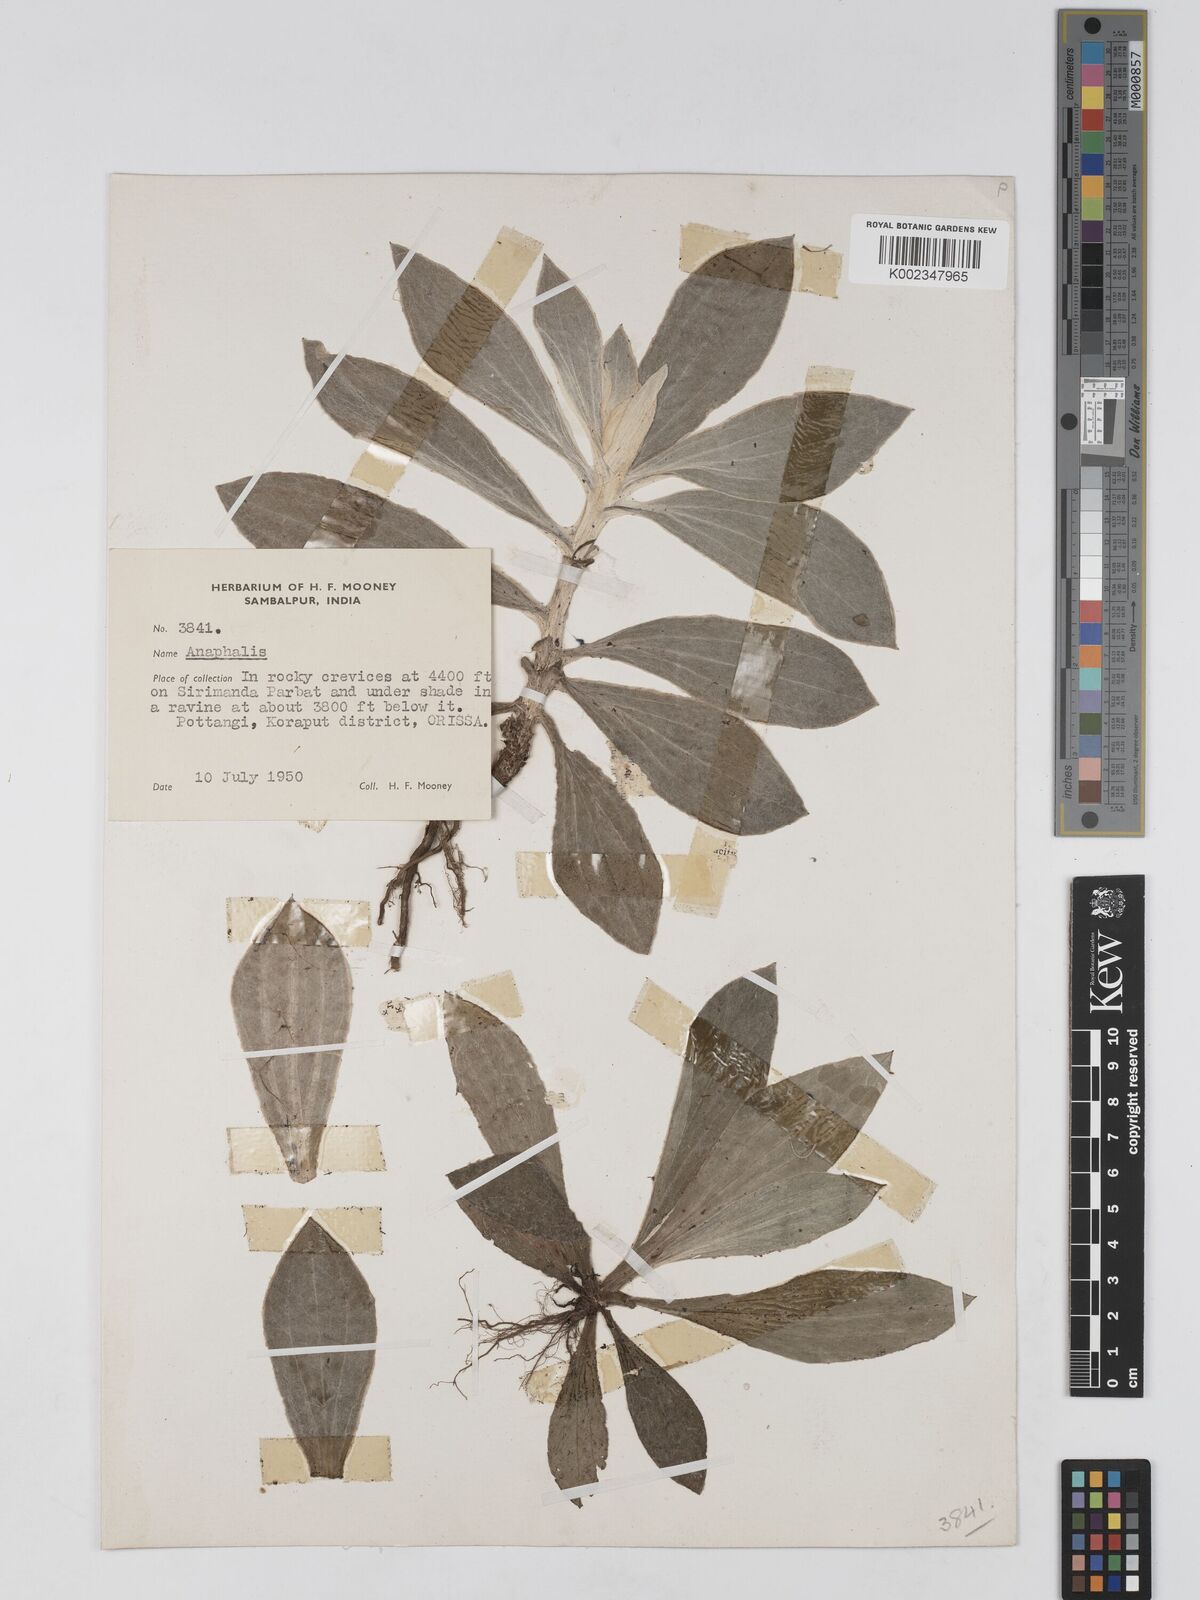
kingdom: Plantae
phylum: Tracheophyta
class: Magnoliopsida
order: Asterales
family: Asteraceae
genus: Anaphalis
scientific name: Anaphalis
